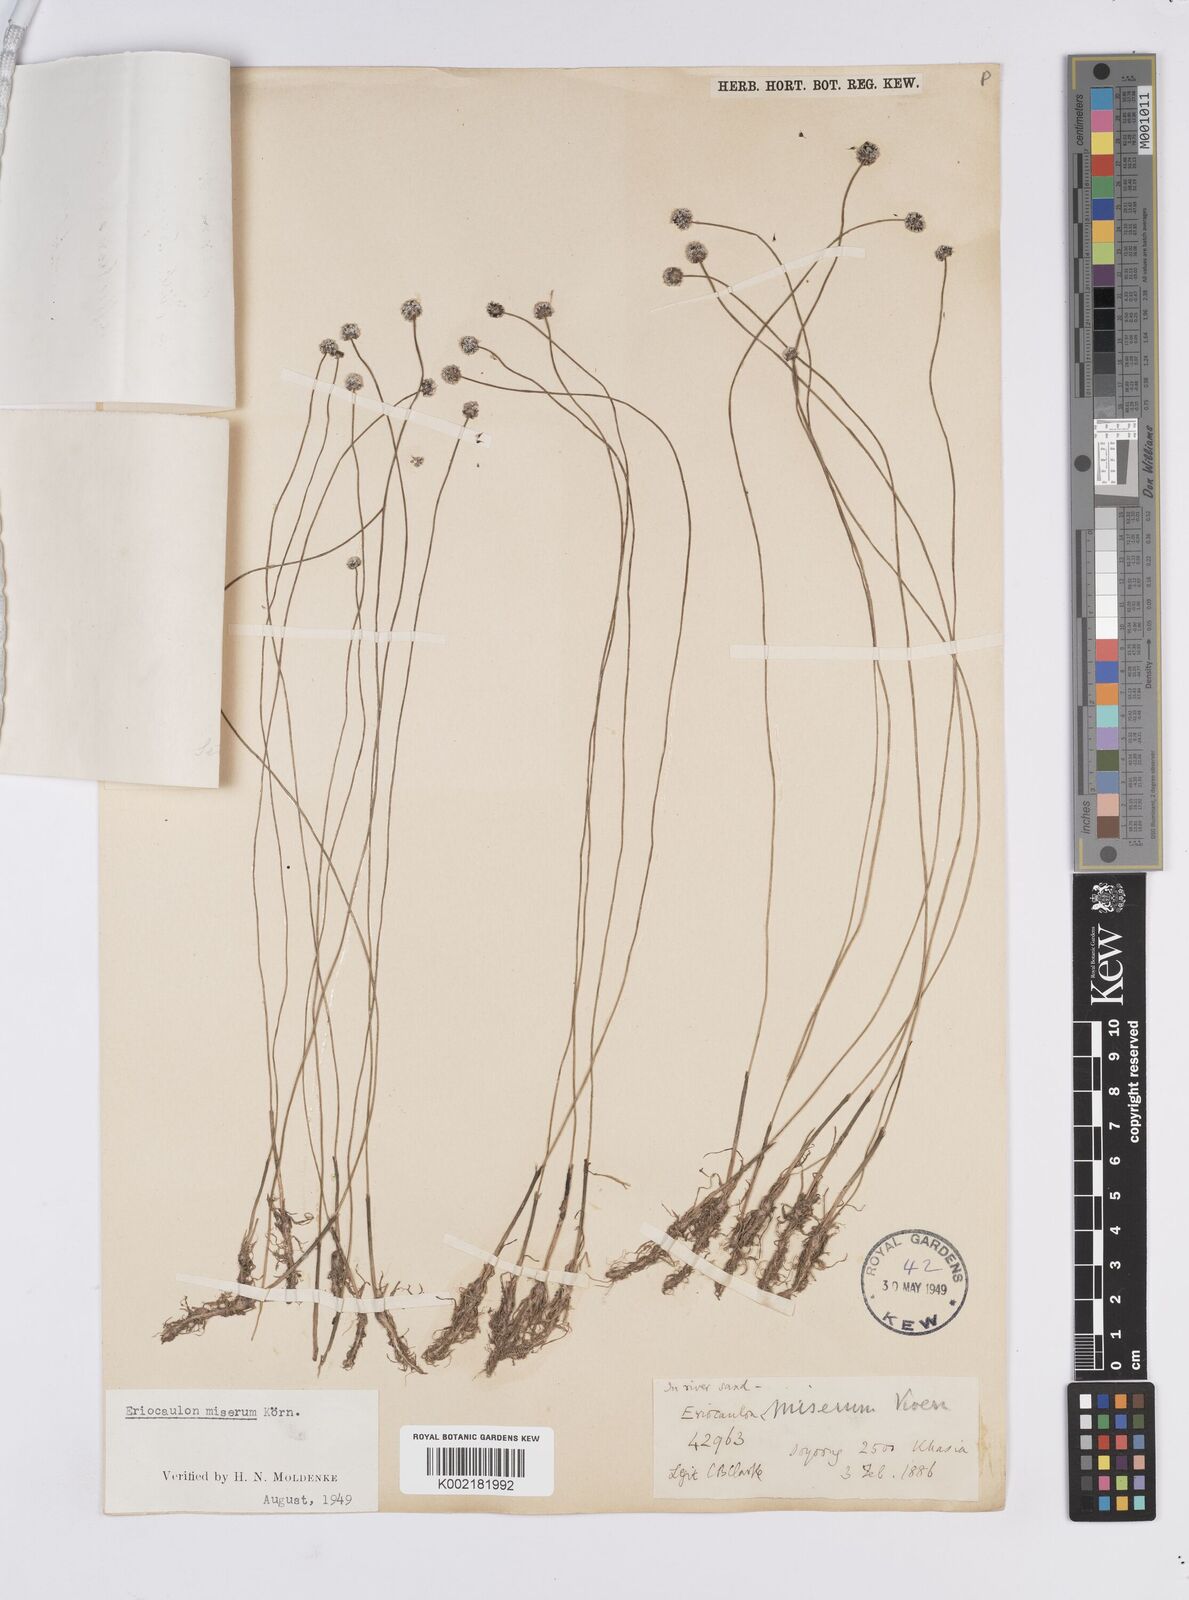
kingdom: Plantae
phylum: Tracheophyta
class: Liliopsida
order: Poales
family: Eriocaulaceae
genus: Eriocaulon
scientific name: Eriocaulon miserum
